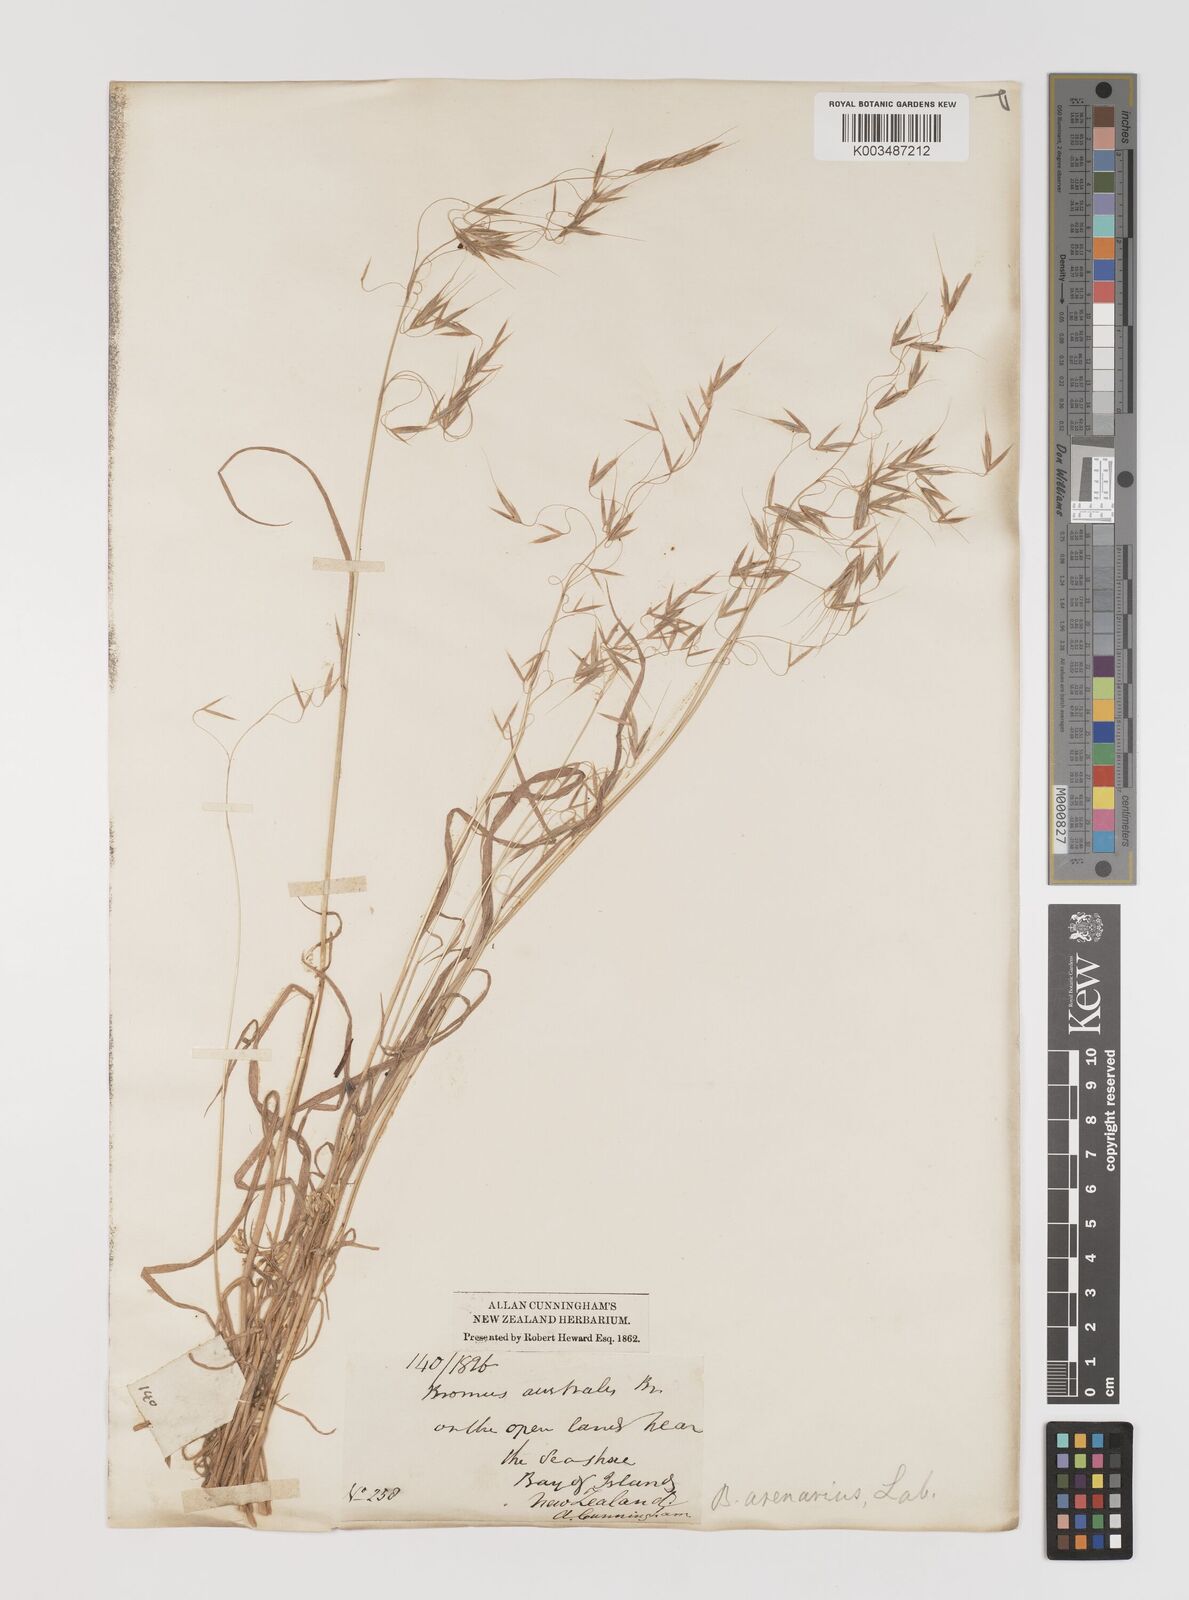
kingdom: Plantae
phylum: Tracheophyta
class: Liliopsida
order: Poales
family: Poaceae
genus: Bromus
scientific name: Bromus arenarius
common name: Australian brome
